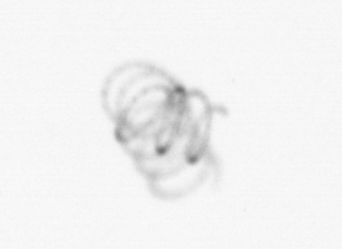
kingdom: Chromista
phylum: Ochrophyta
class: Bacillariophyceae
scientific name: Bacillariophyceae
